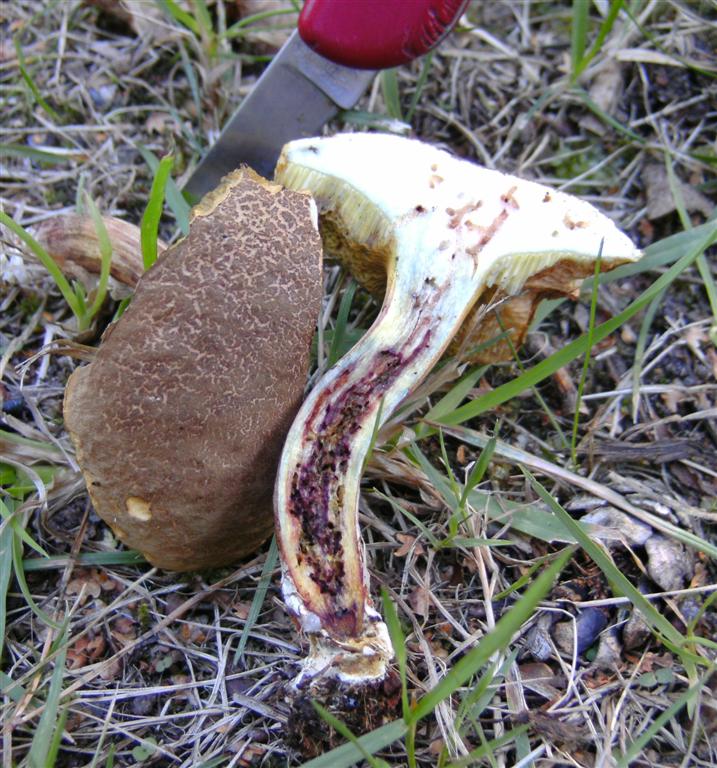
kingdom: Fungi
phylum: Basidiomycota
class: Agaricomycetes
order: Boletales
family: Boletaceae
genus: Xerocomellus
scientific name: Xerocomellus cisalpinus
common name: finsprukken rørhat
